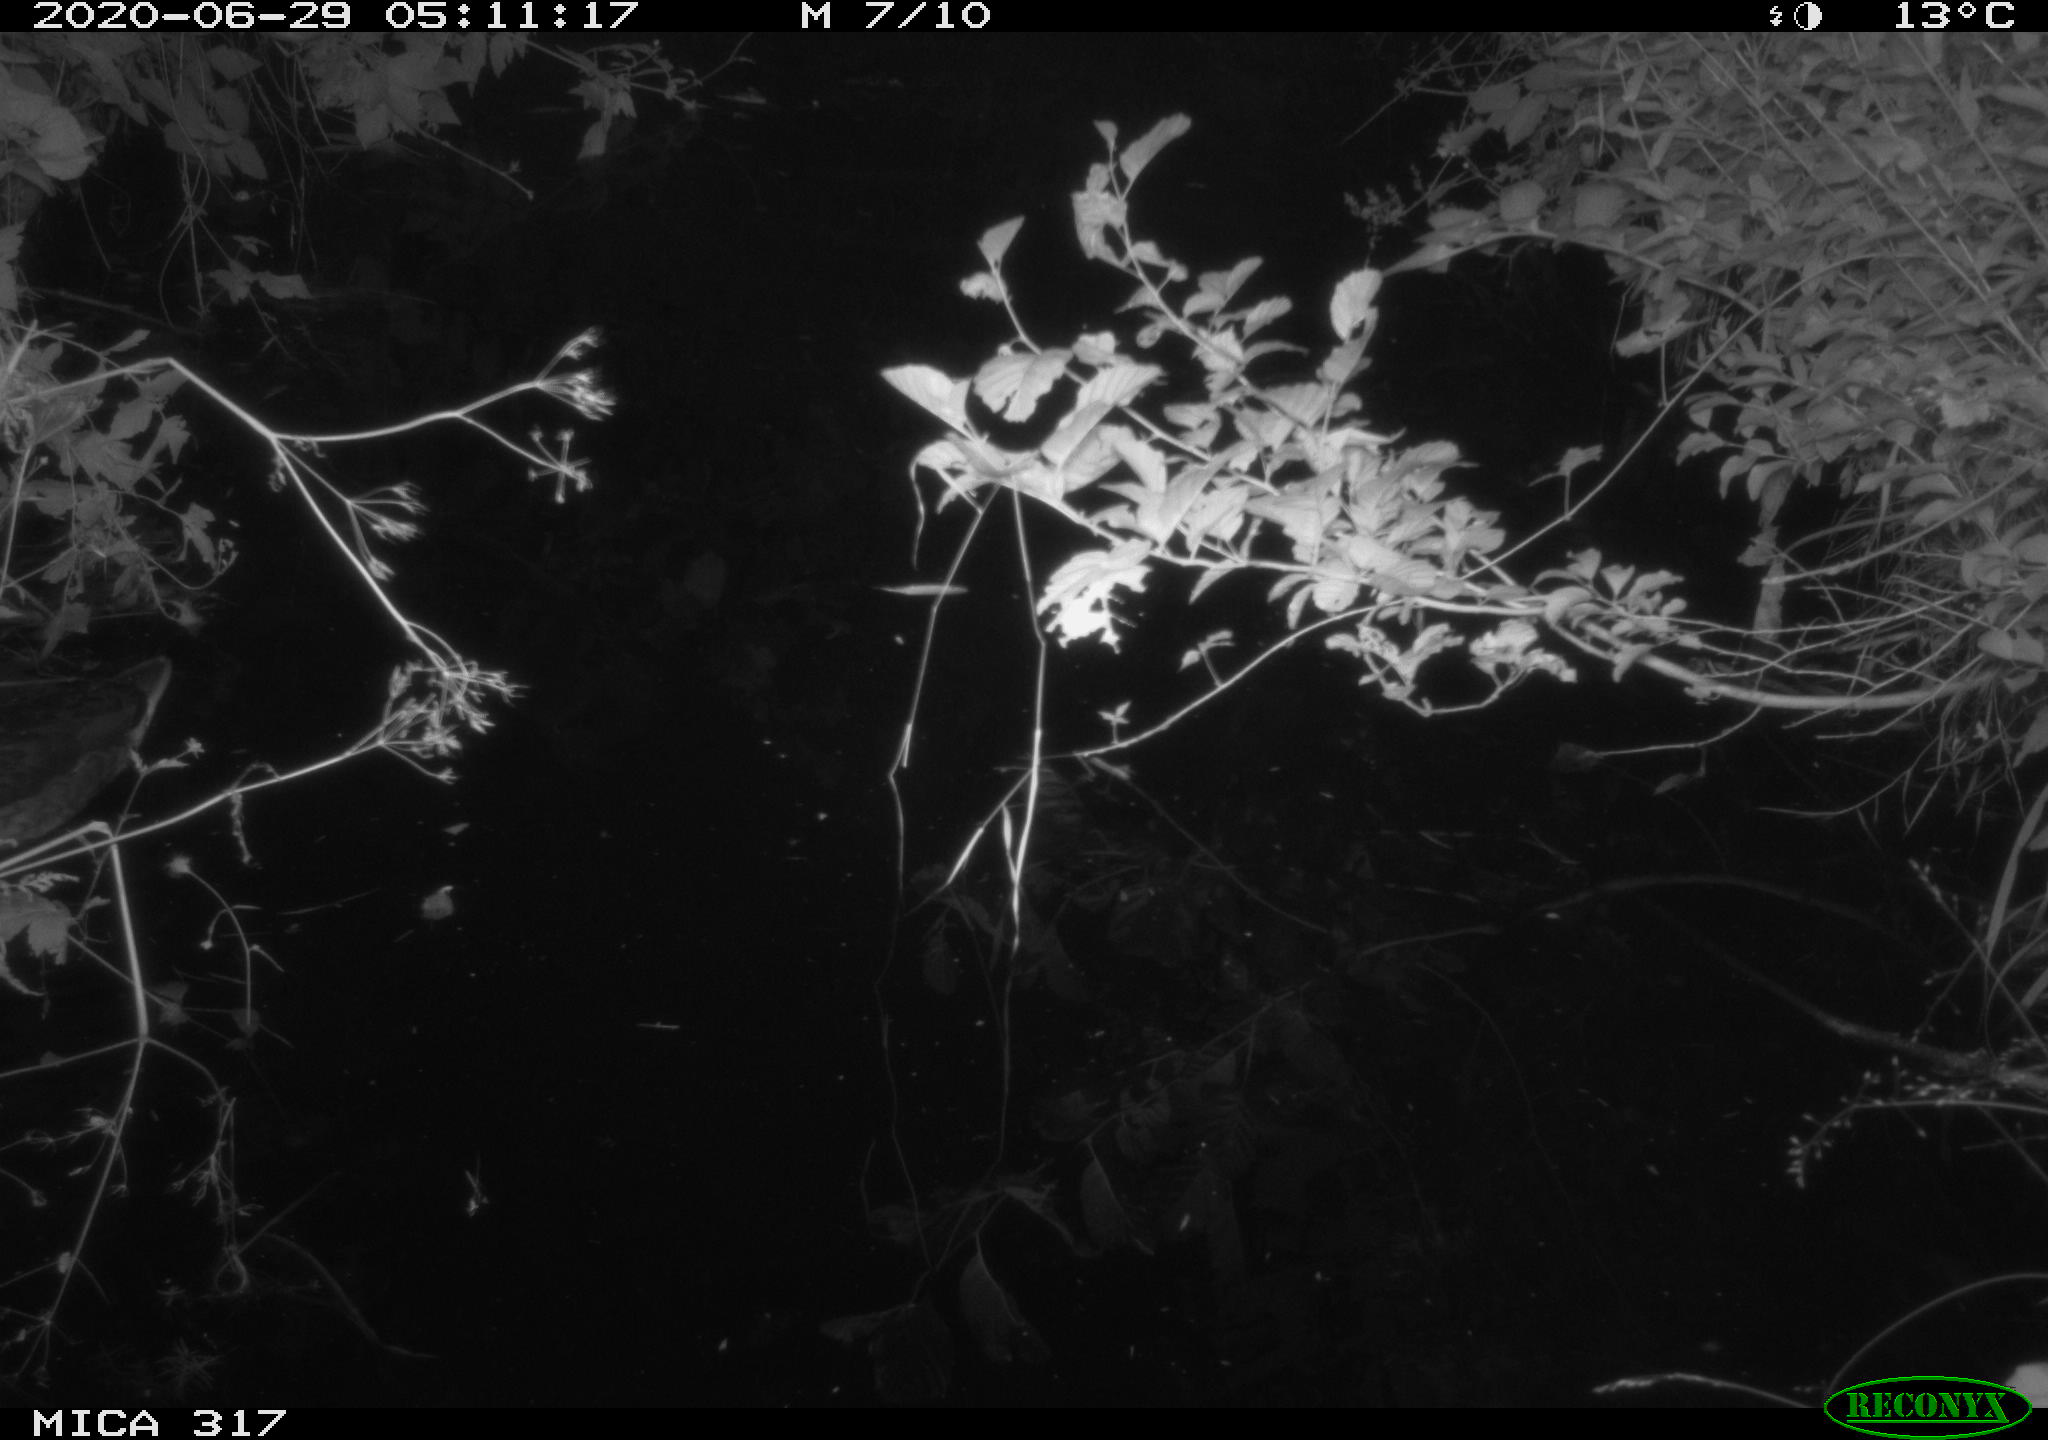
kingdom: Animalia
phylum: Chordata
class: Aves
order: Anseriformes
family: Anatidae
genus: Anas
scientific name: Anas platyrhynchos
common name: Mallard
